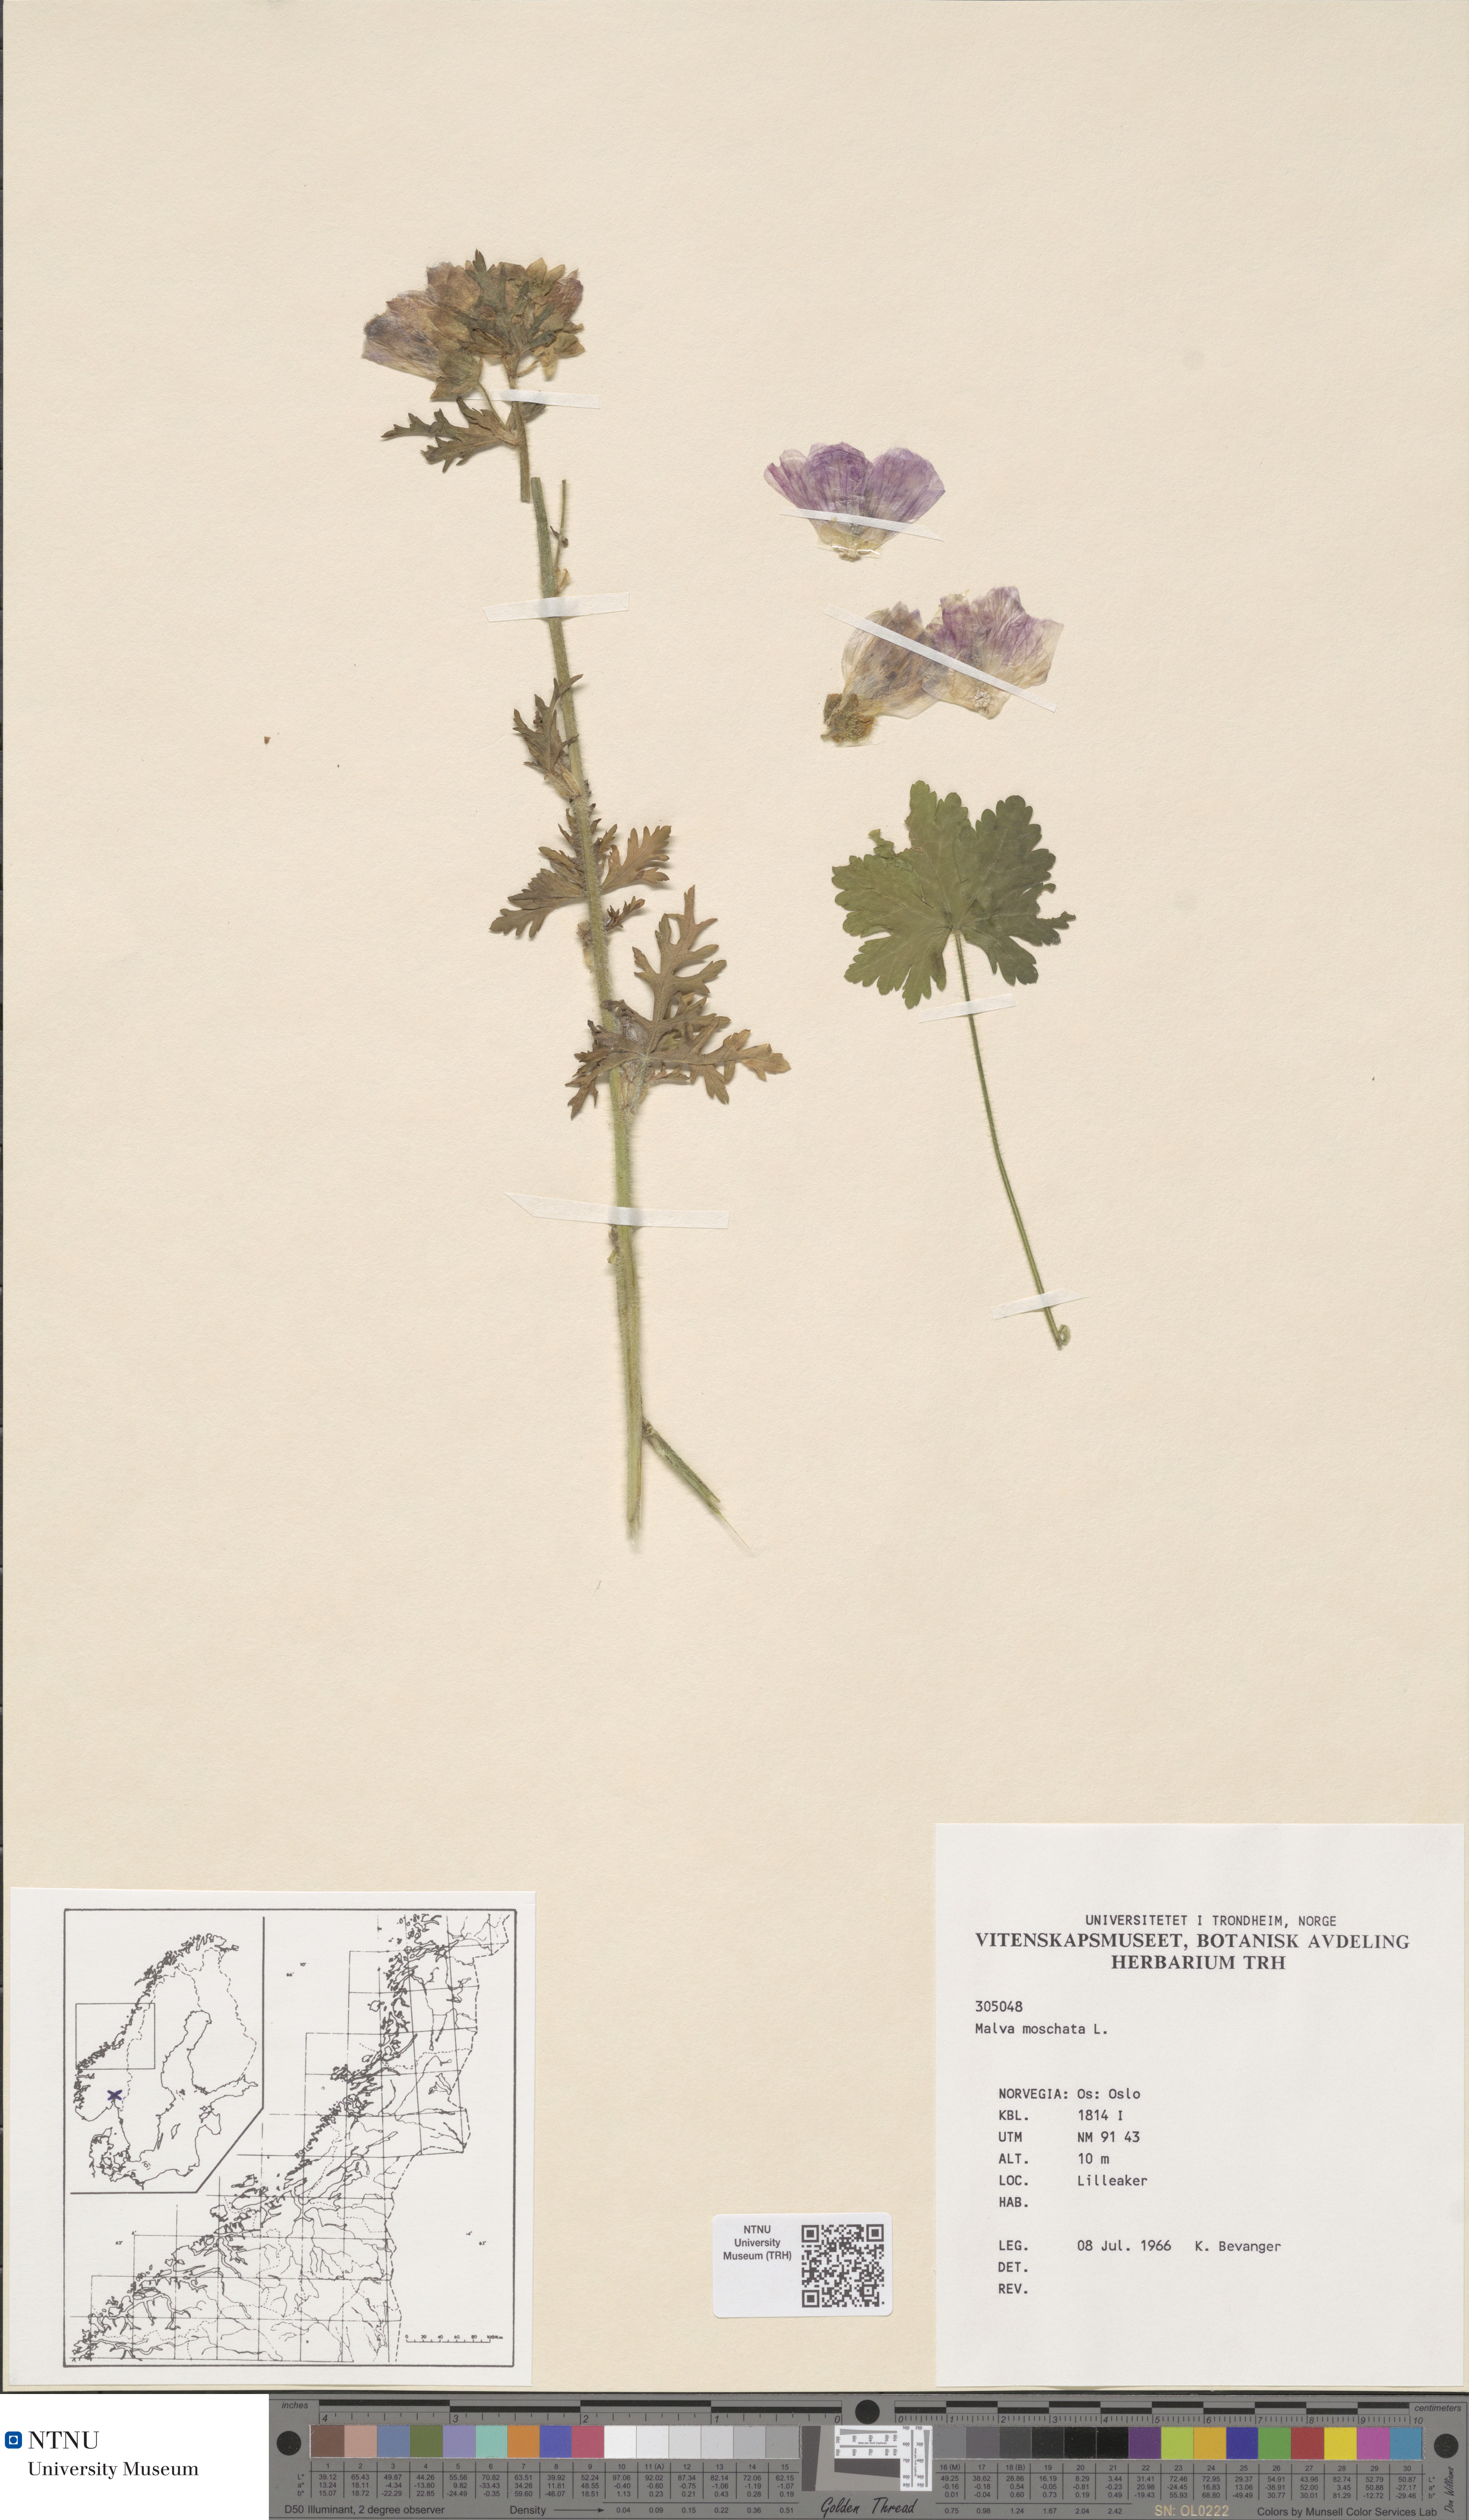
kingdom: Plantae
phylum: Tracheophyta
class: Magnoliopsida
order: Malvales
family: Malvaceae
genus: Malva
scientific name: Malva moschata
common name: Musk mallow
